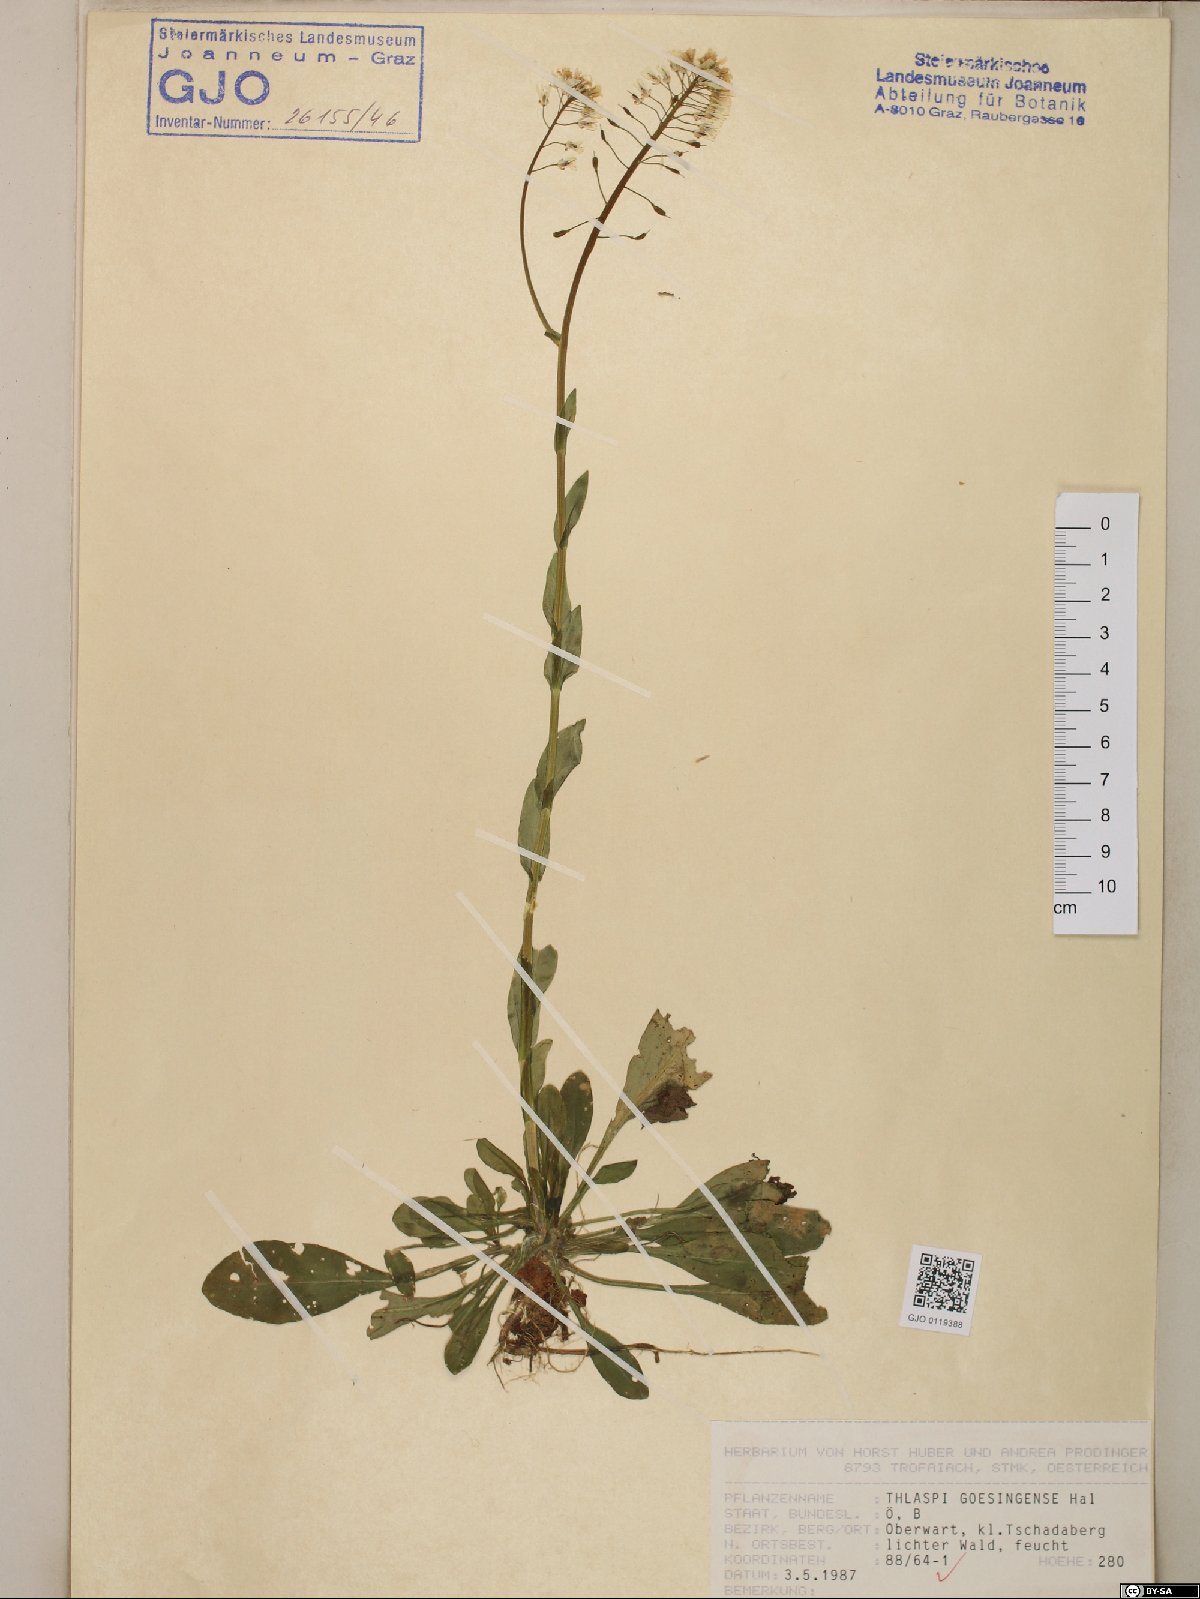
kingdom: Plantae
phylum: Tracheophyta
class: Magnoliopsida
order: Brassicales
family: Brassicaceae
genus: Noccaea
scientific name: Noccaea goesingensis
